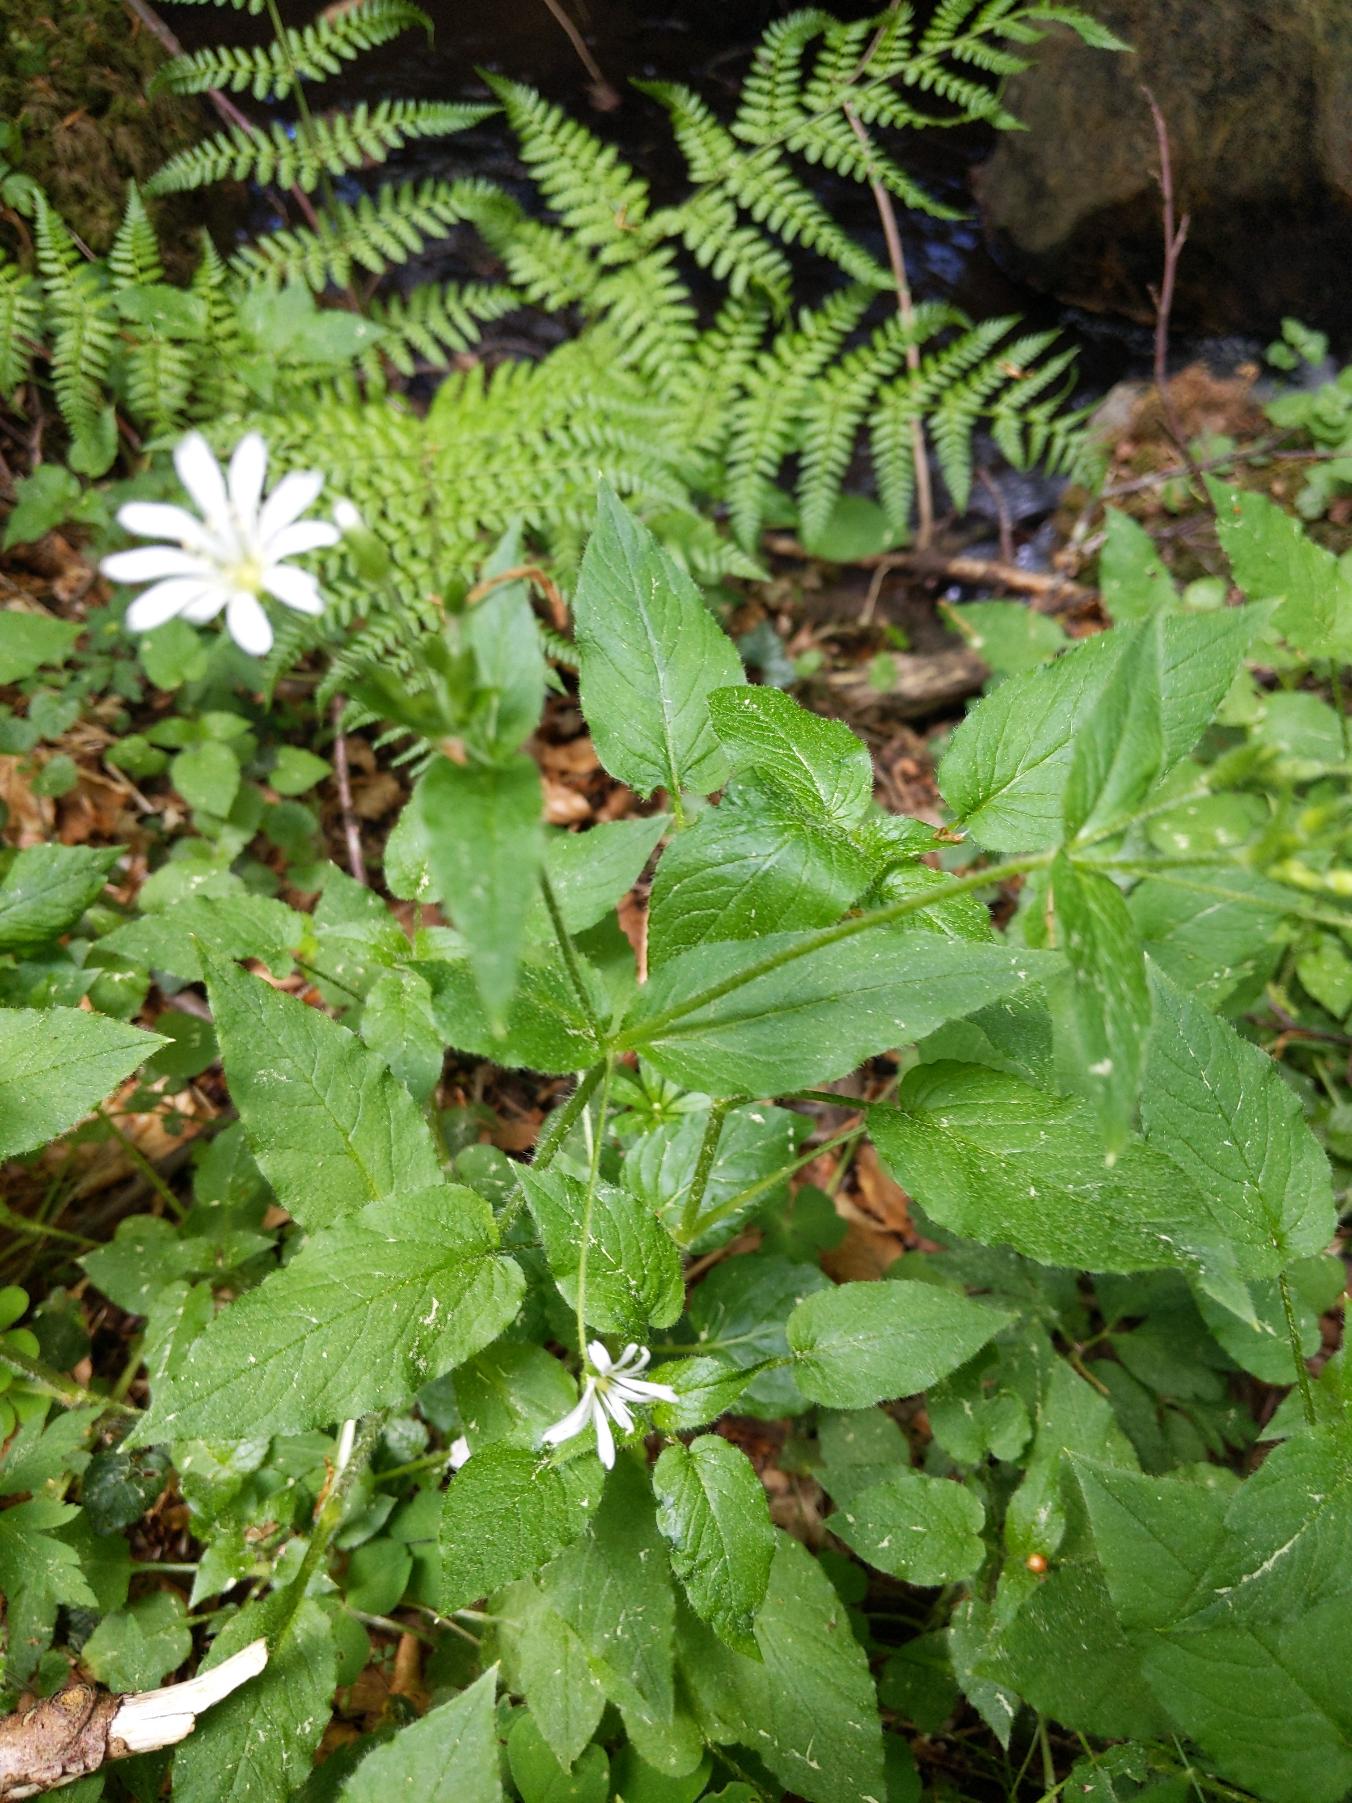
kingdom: Plantae
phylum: Tracheophyta
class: Magnoliopsida
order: Caryophyllales
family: Caryophyllaceae
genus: Stellaria
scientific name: Stellaria nemorum
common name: Nordlig lund-fladstjerne
